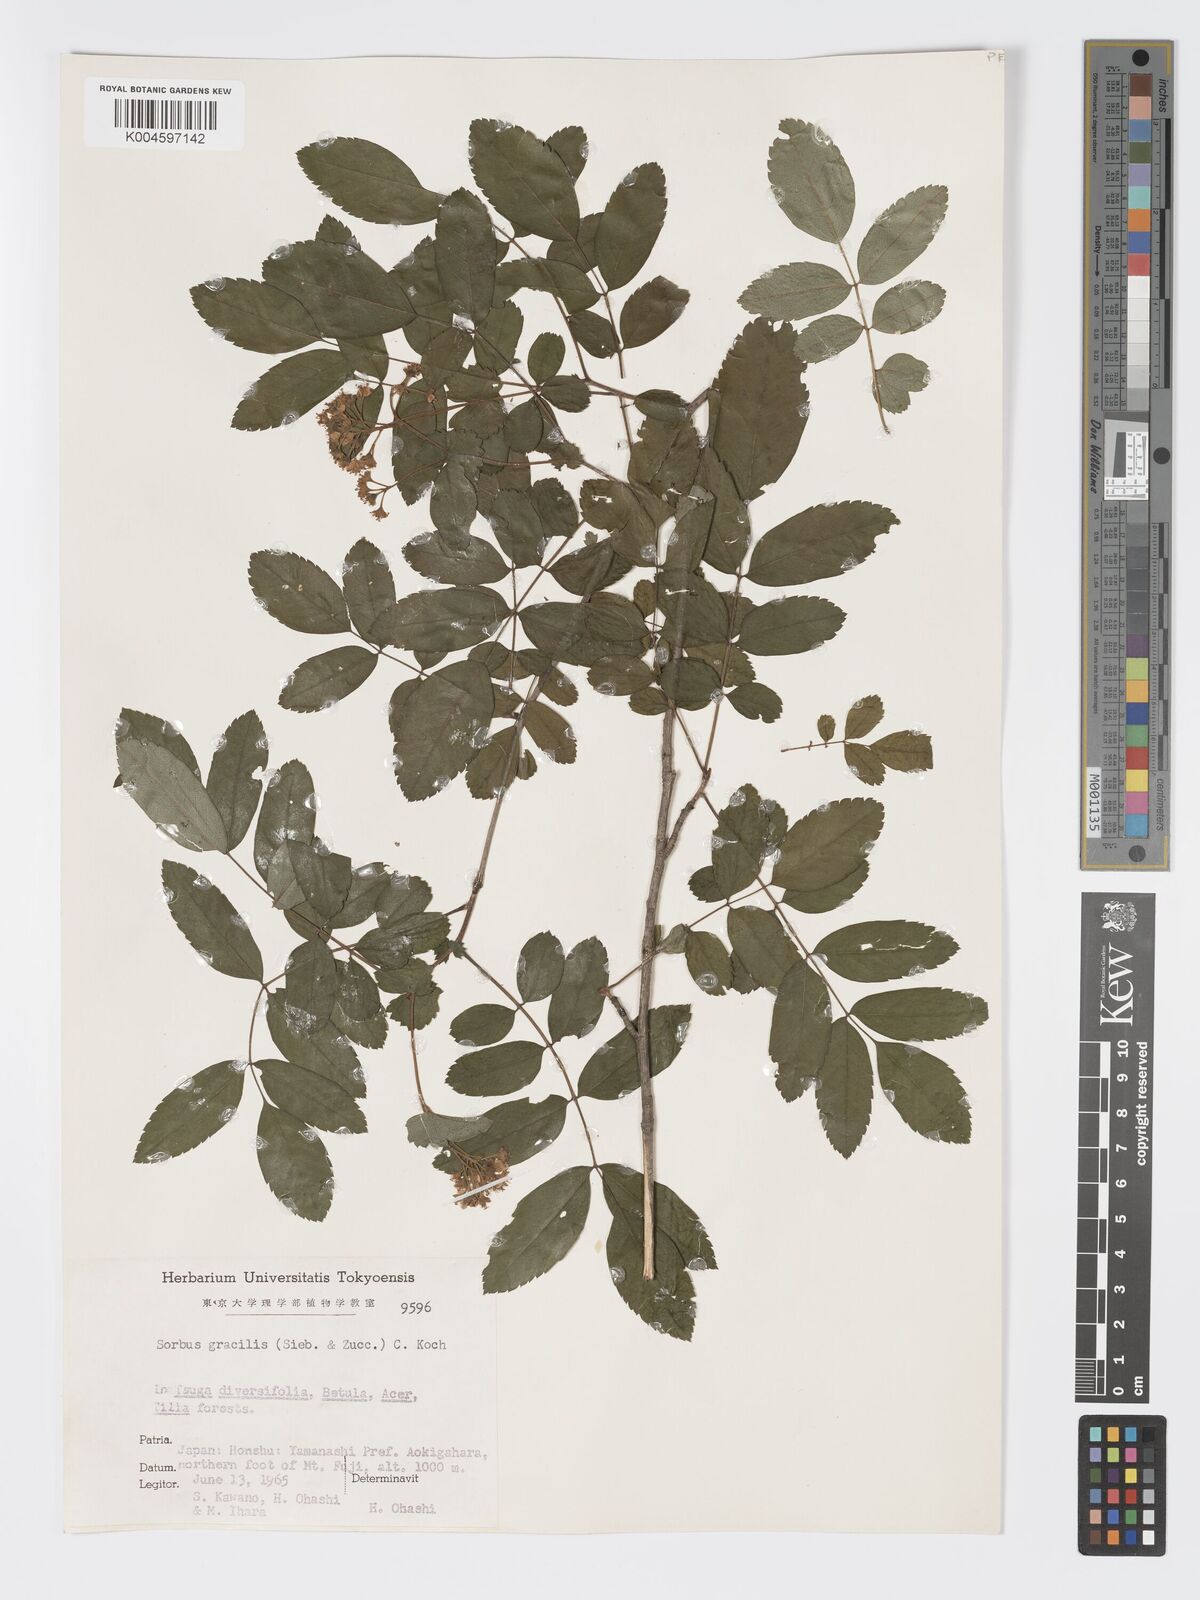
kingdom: Plantae
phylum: Tracheophyta
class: Magnoliopsida
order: Rosales
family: Rosaceae
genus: Sorbus
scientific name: Sorbus gracilis
